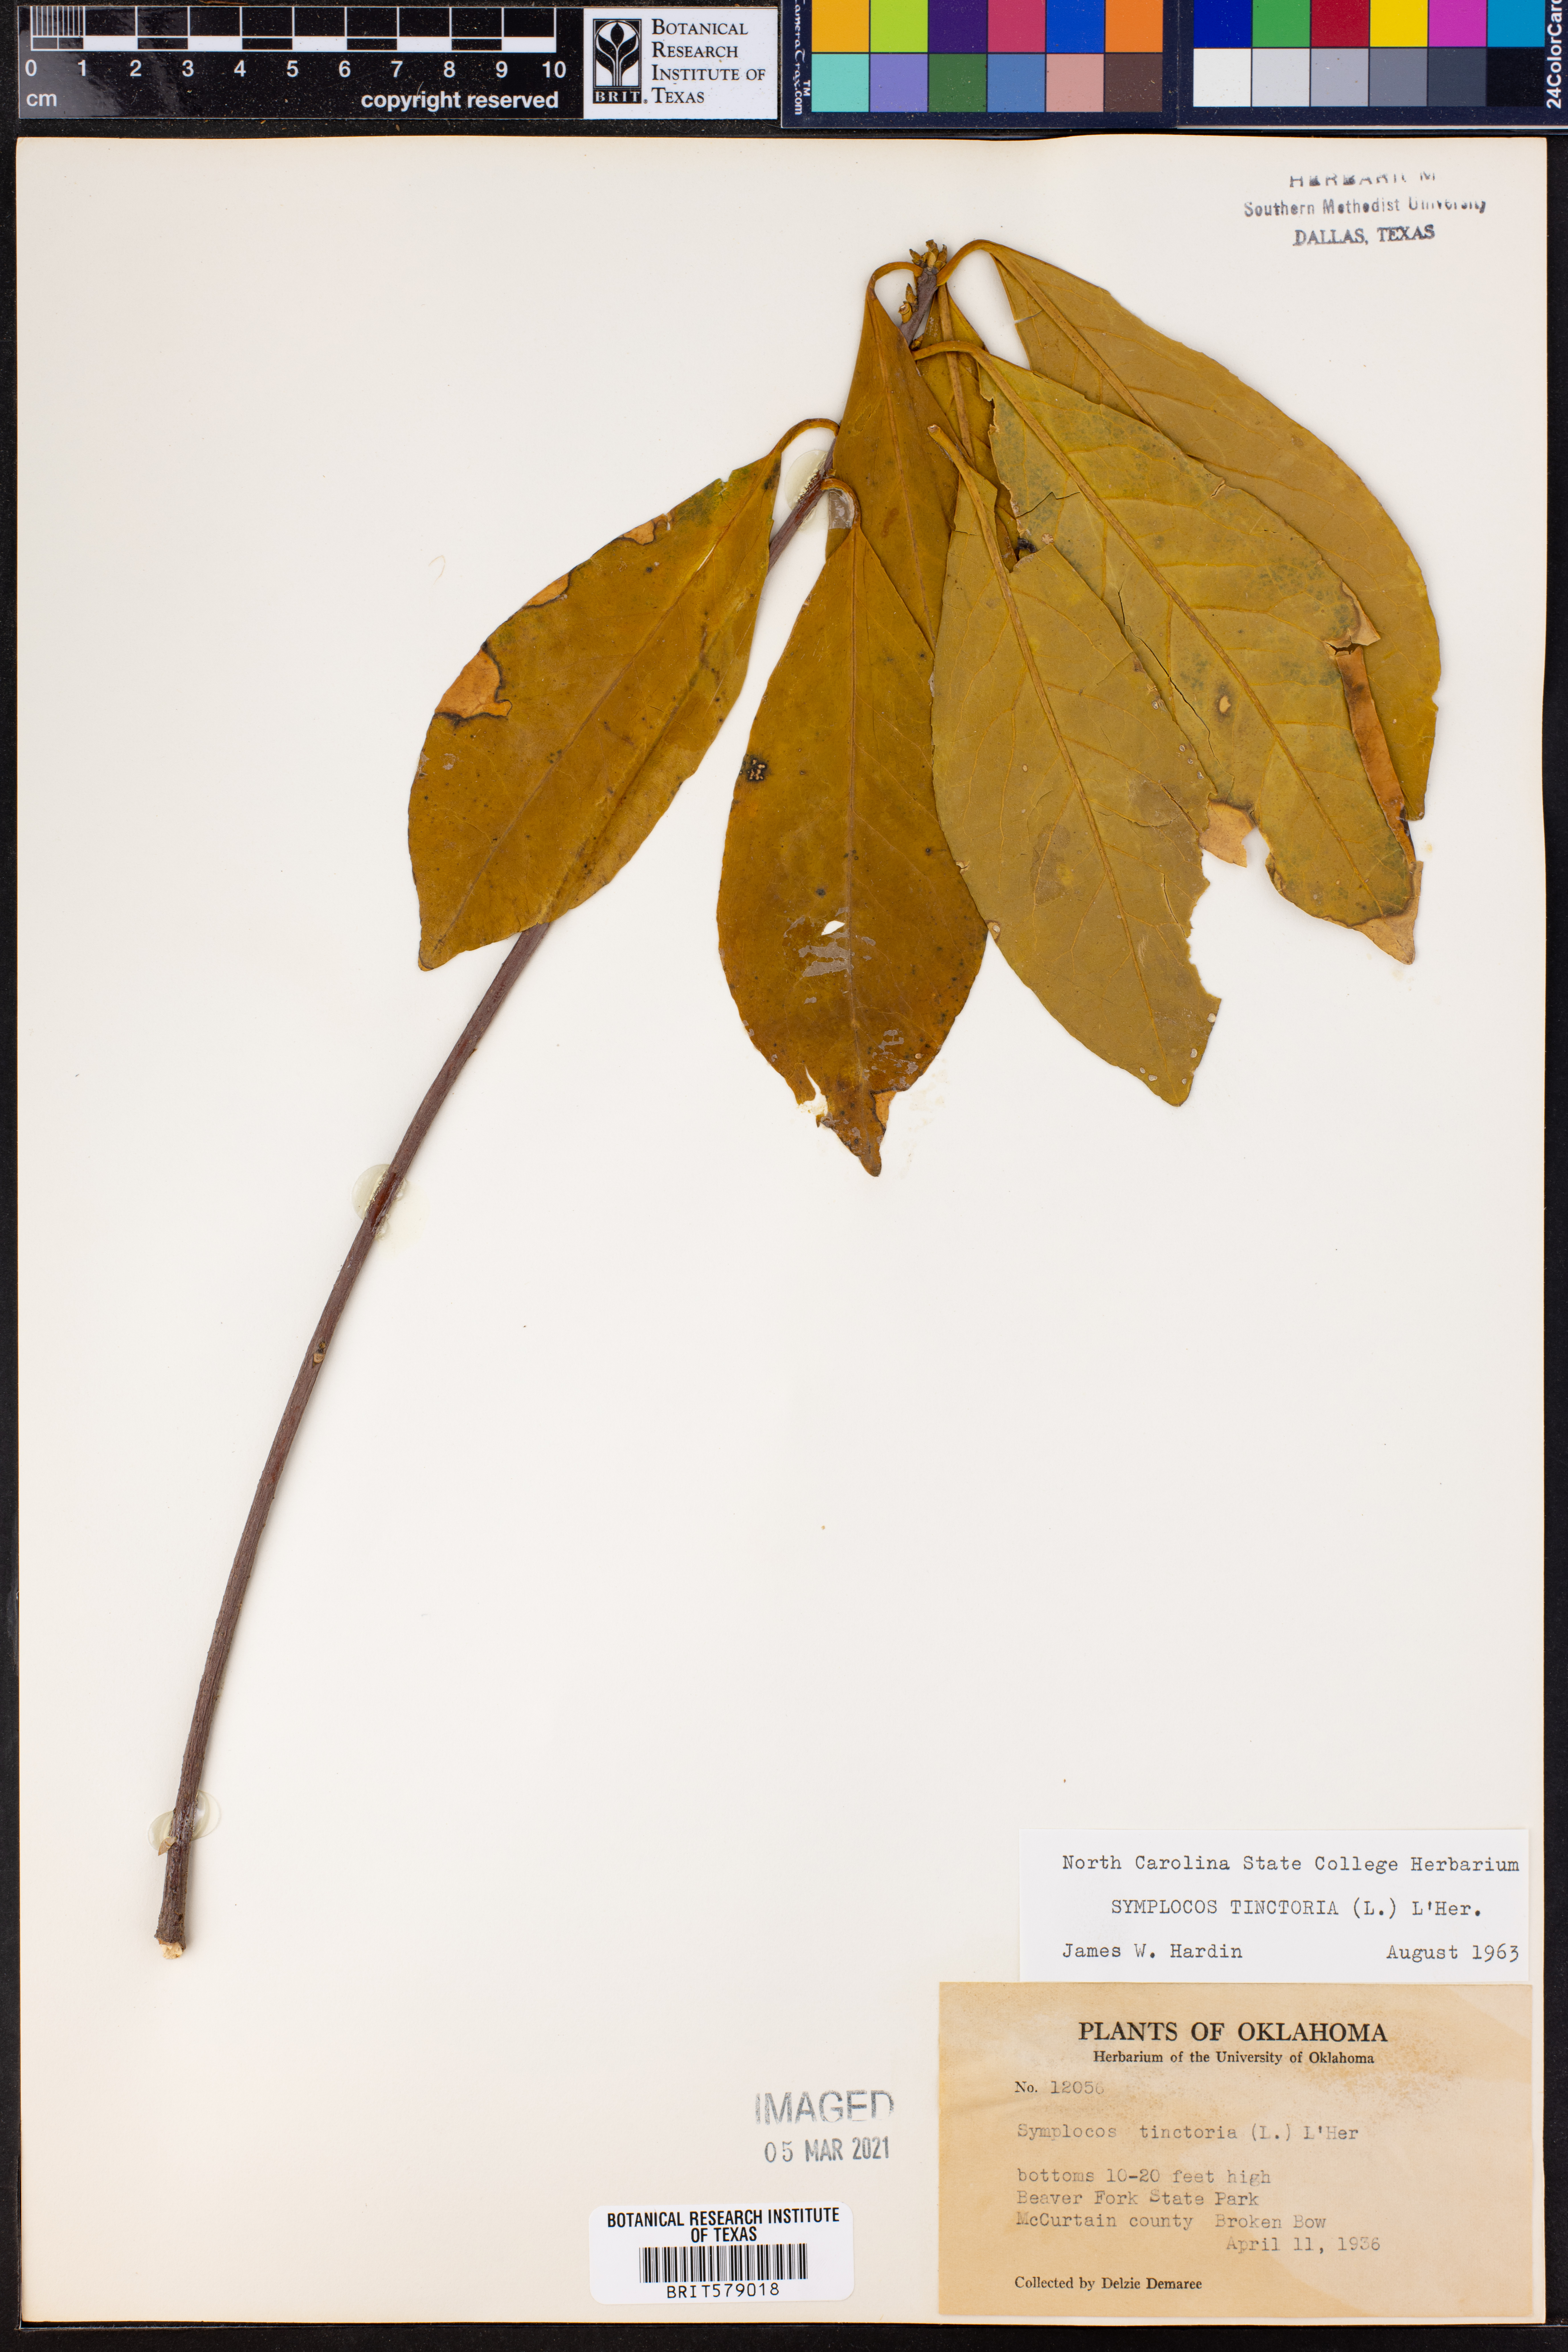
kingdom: Plantae
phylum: Tracheophyta
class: Magnoliopsida
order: Ericales
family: Symplocaceae
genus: Symplocos
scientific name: Symplocos tinctoria
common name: Horse-sugar
